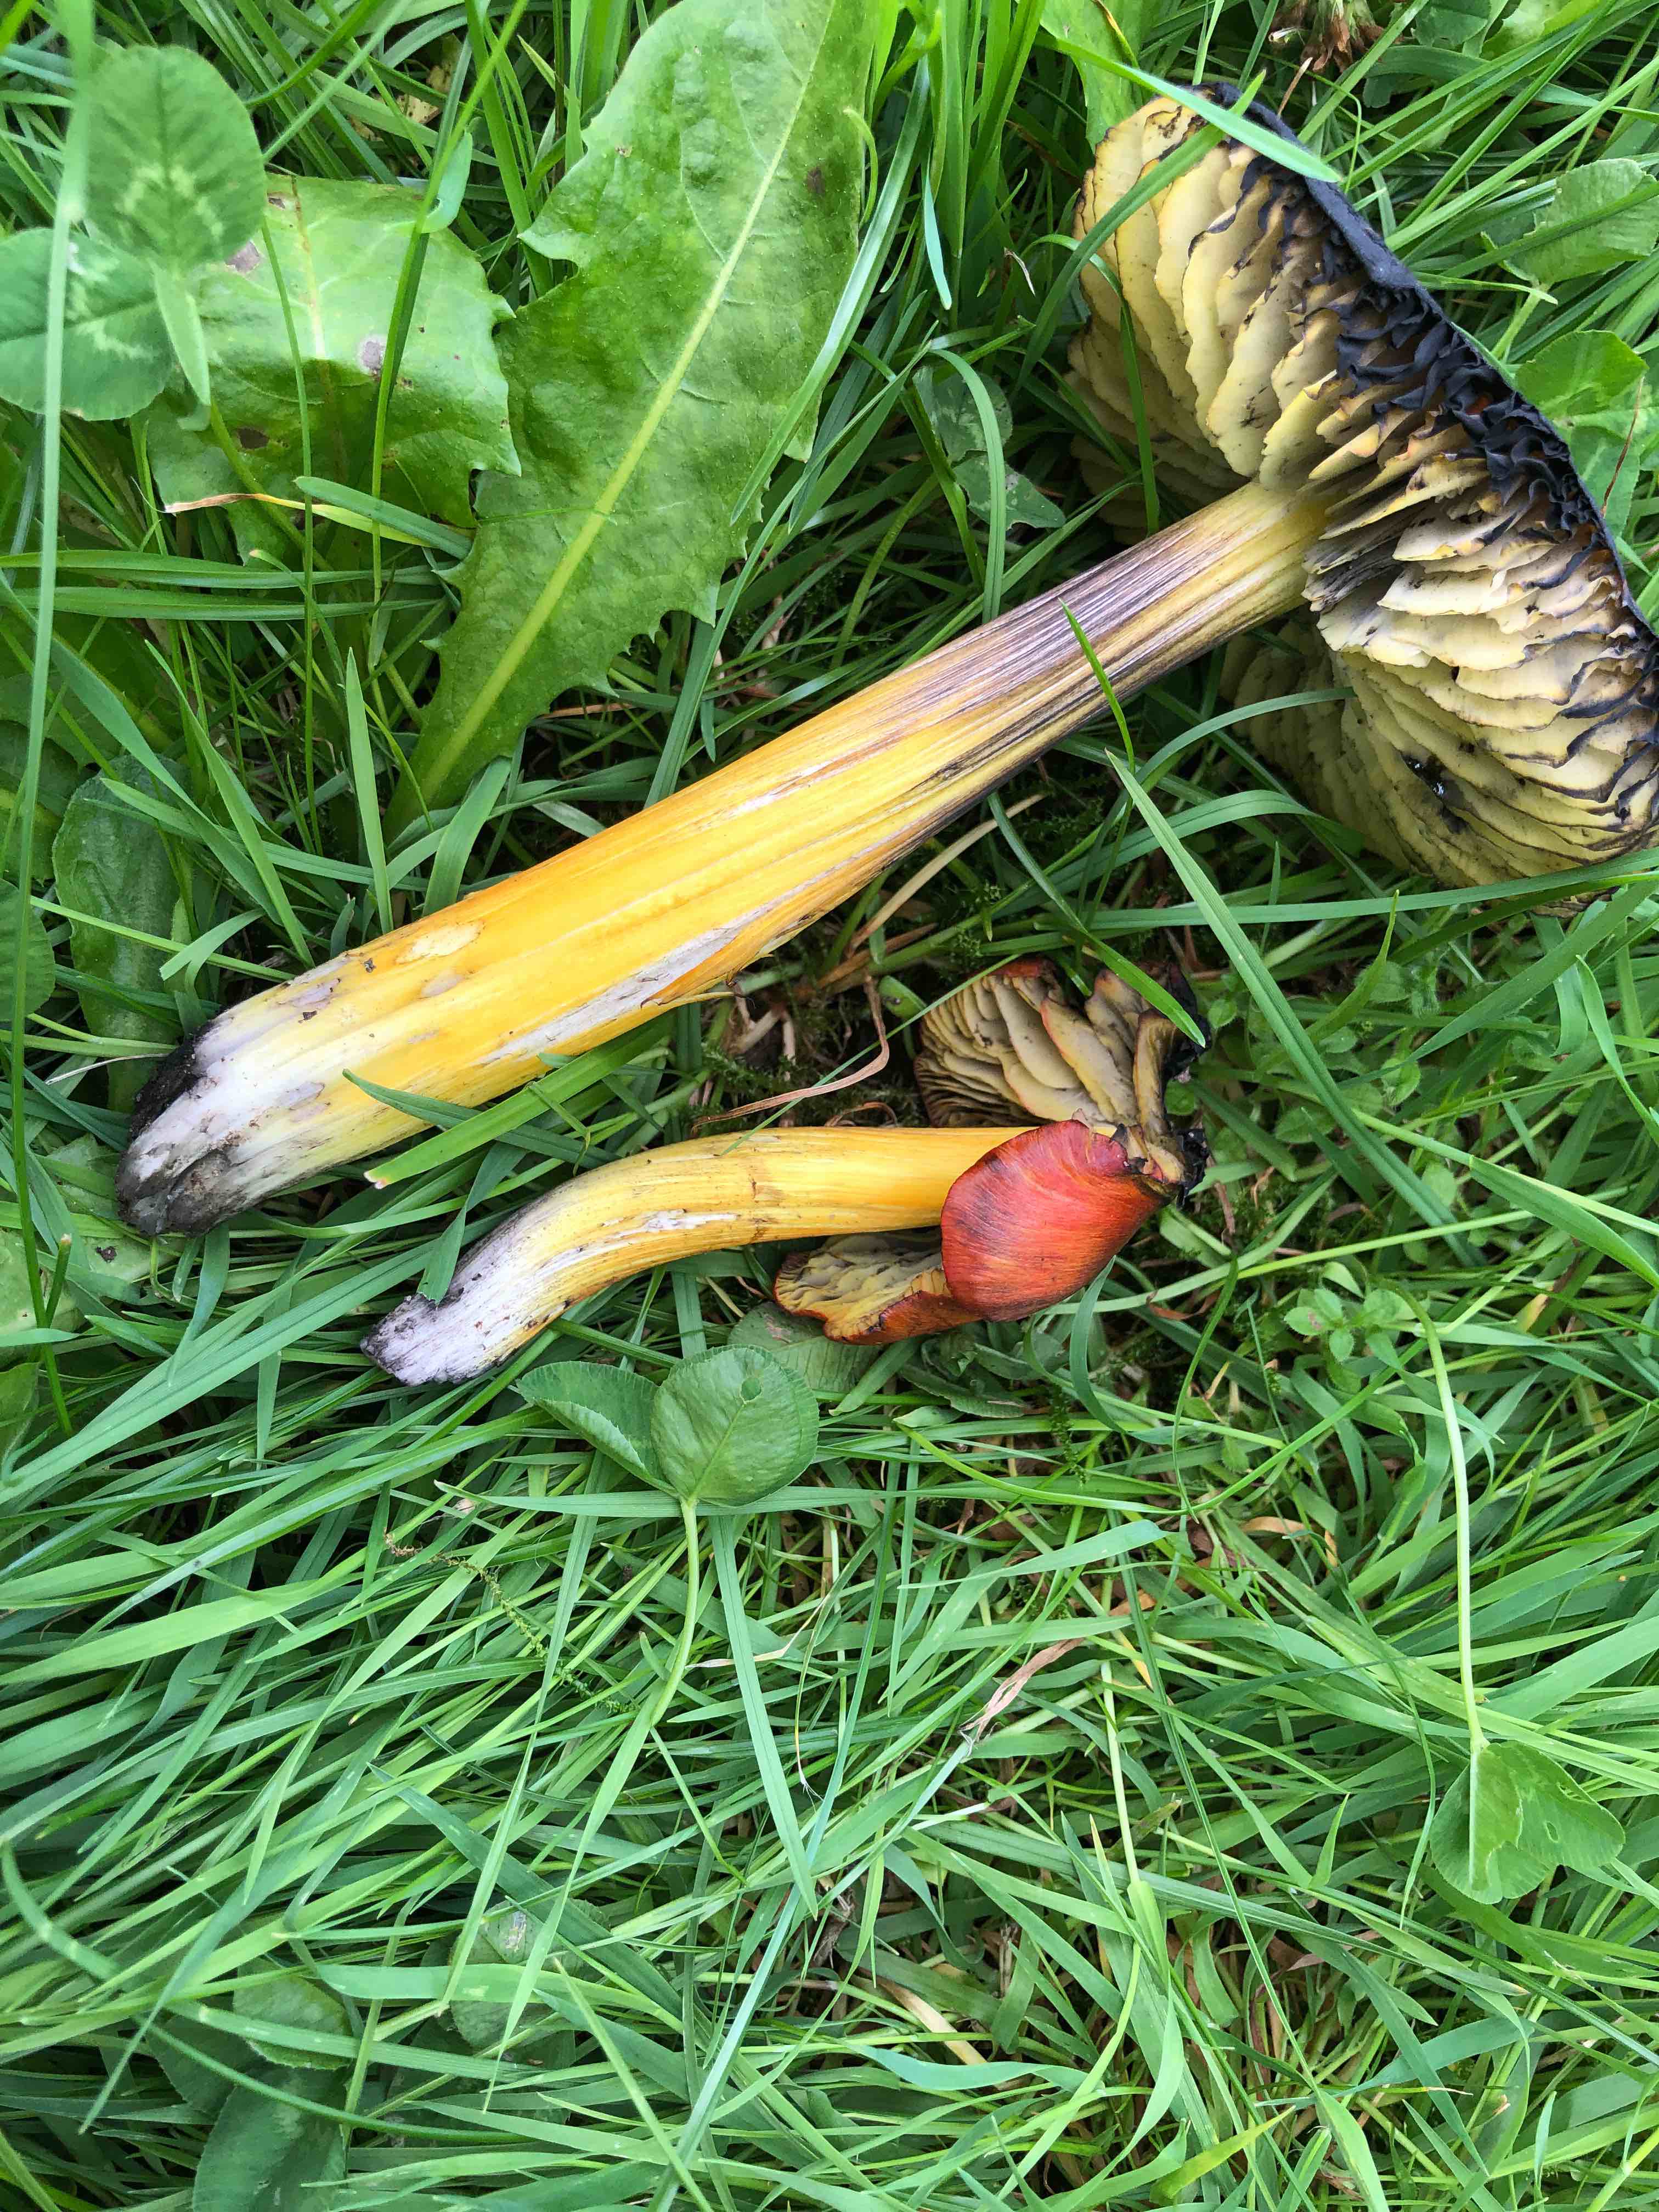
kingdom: Fungi
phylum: Basidiomycota
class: Agaricomycetes
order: Agaricales
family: Hygrophoraceae
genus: Hygrocybe
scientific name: Hygrocybe conica
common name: Blackening wax-cap
